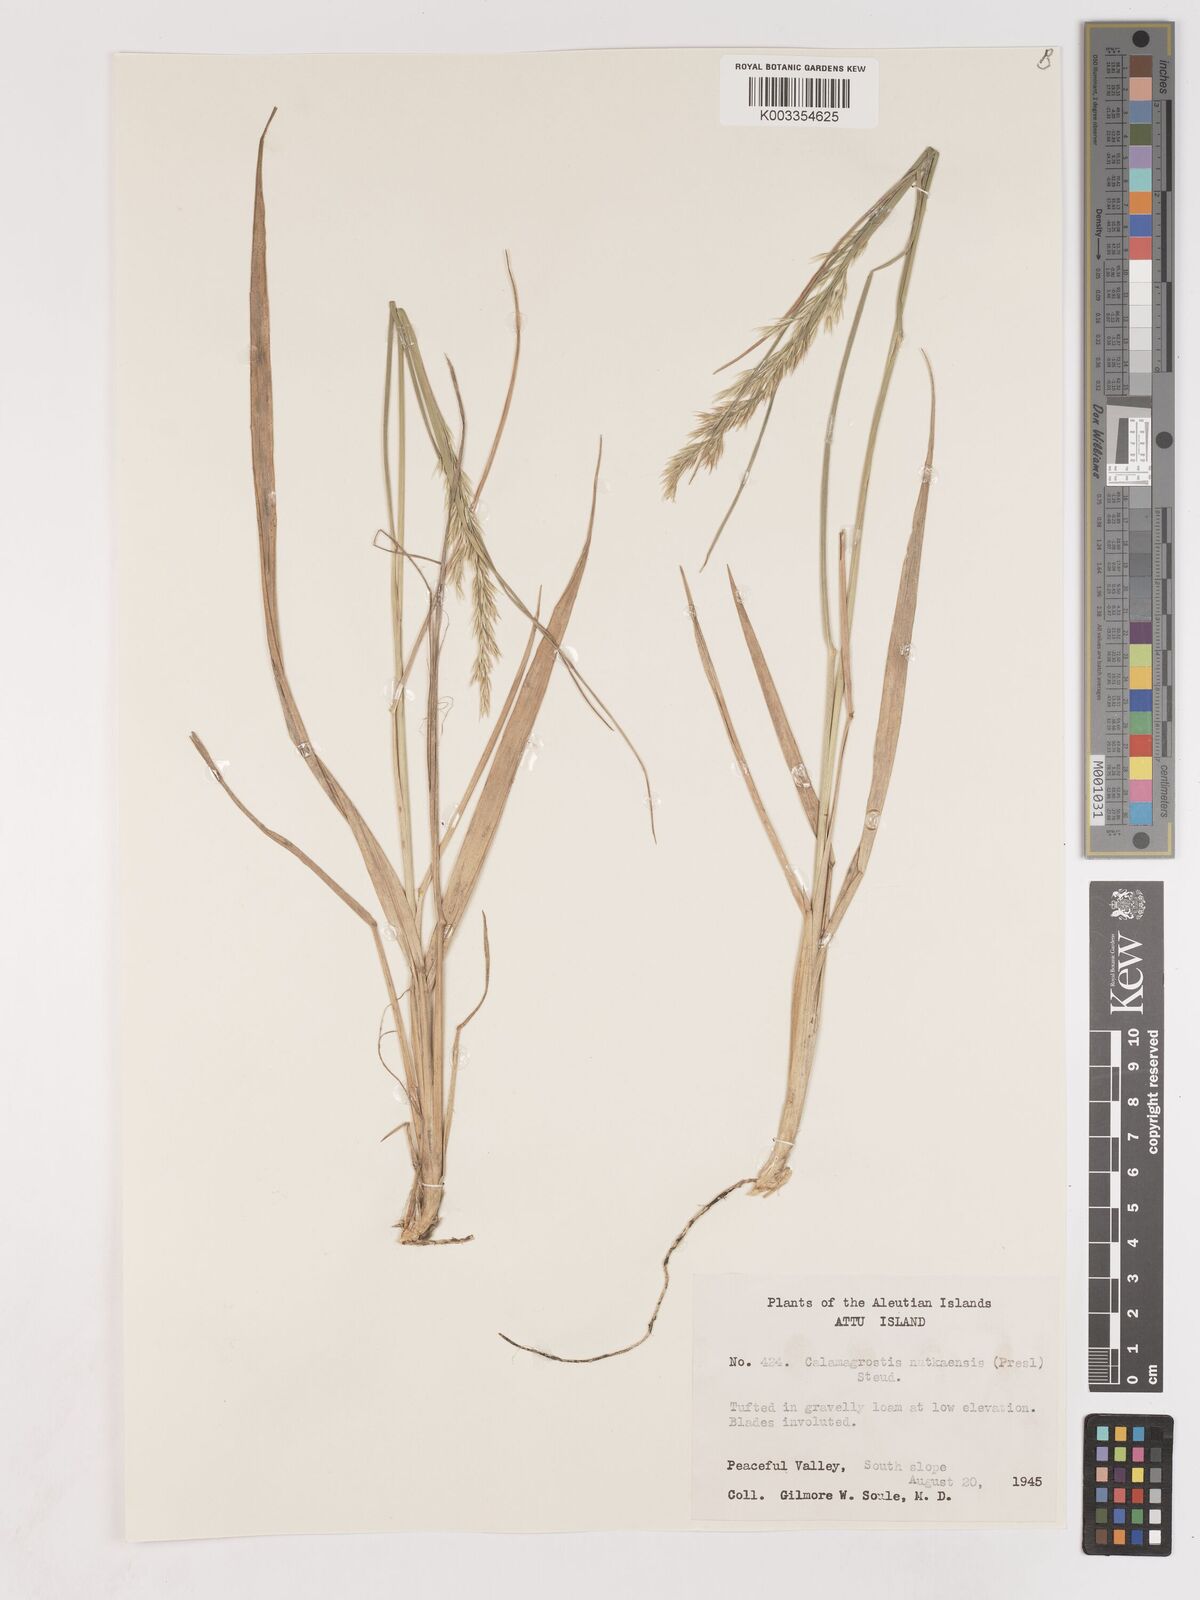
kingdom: Plantae
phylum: Tracheophyta
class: Liliopsida
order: Poales
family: Poaceae
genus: Calamagrostis
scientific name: Calamagrostis nutkaensis
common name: Pacific reed grass
